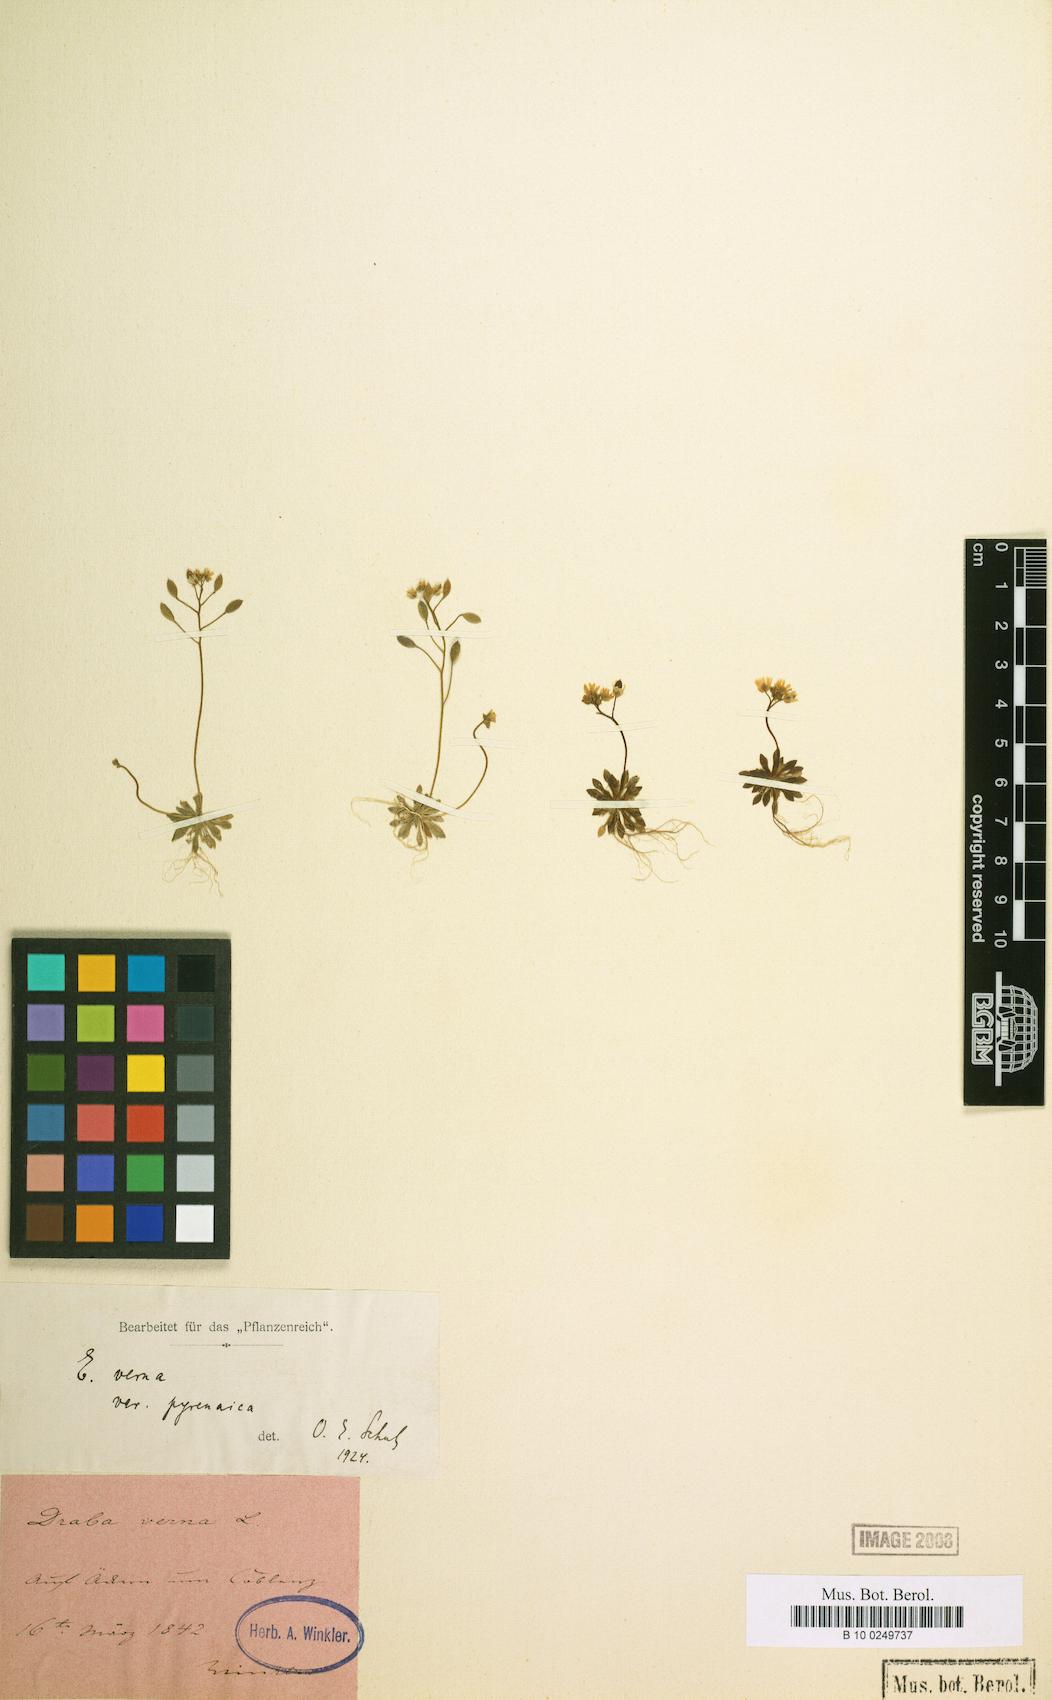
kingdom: Plantae
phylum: Tracheophyta
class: Magnoliopsida
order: Brassicales
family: Brassicaceae
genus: Draba
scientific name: Draba verna
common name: Spring draba
